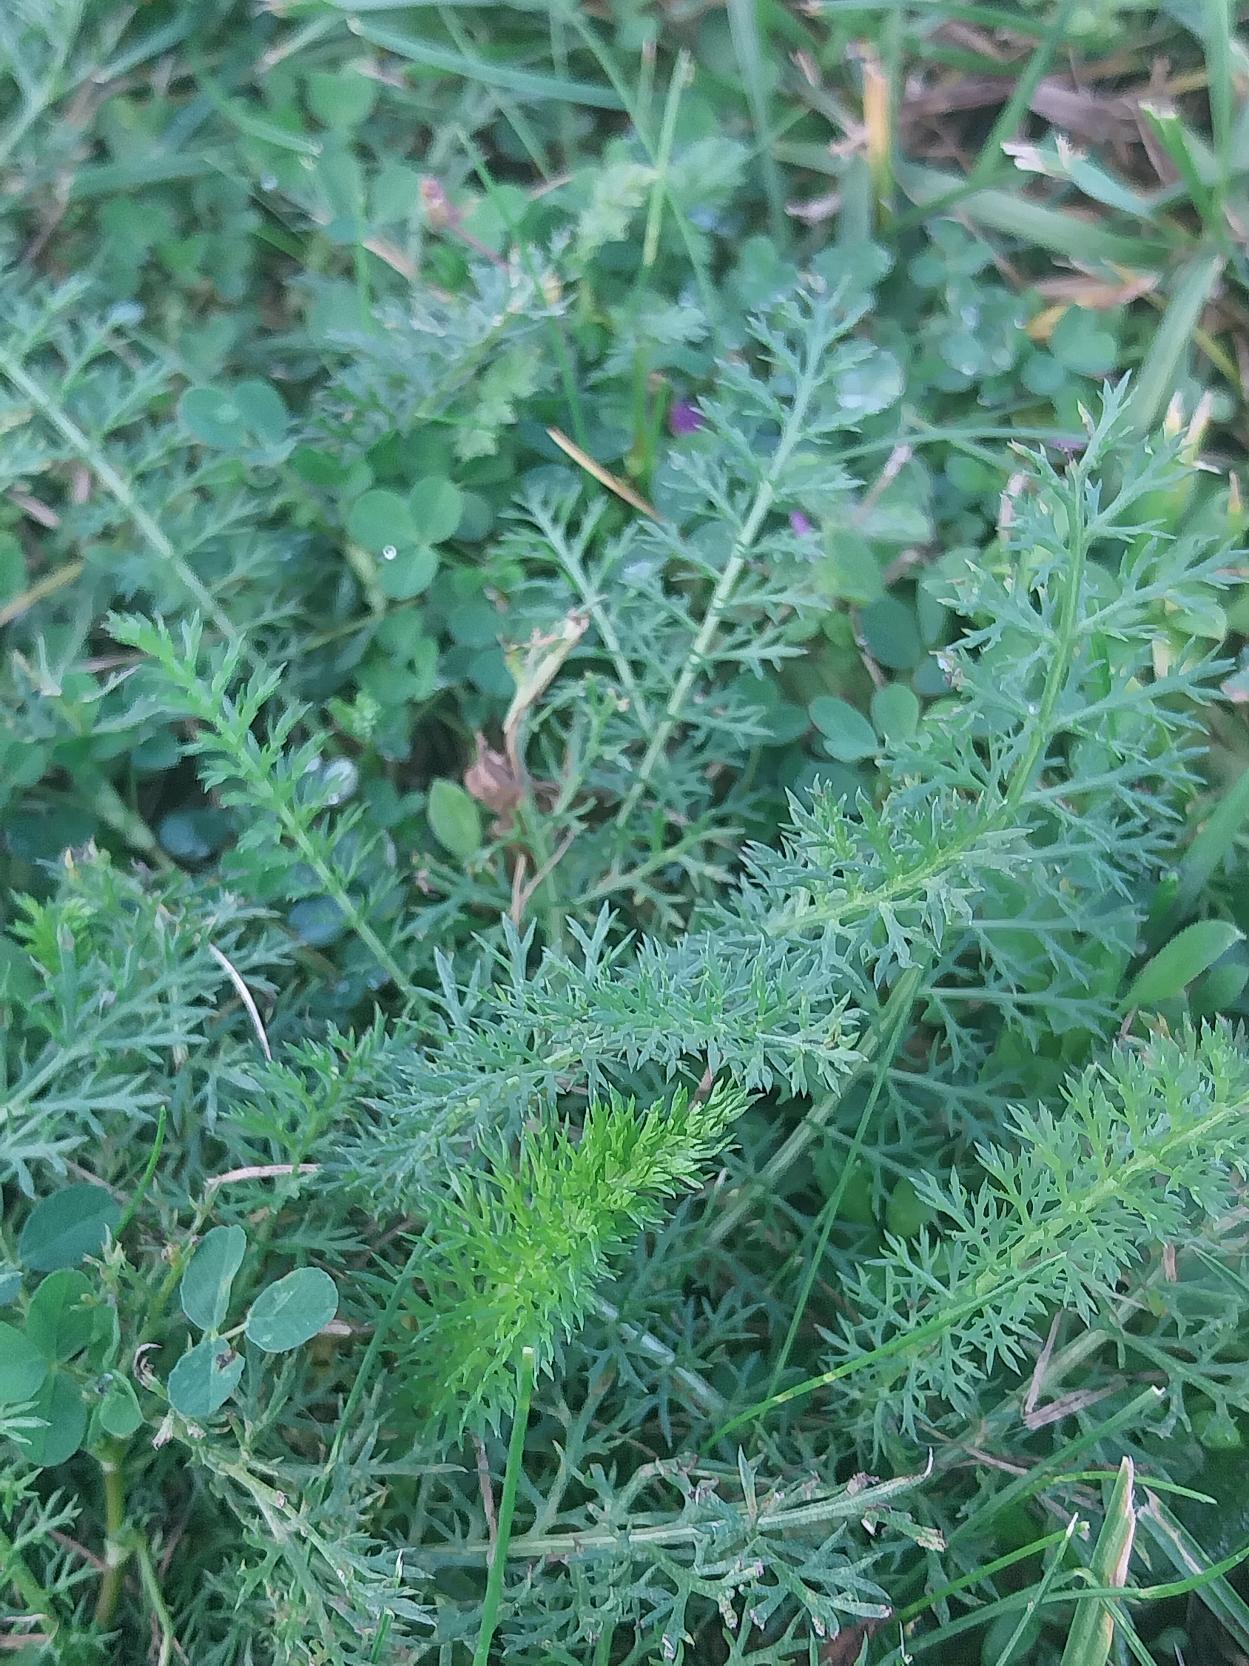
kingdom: Plantae
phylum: Tracheophyta
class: Magnoliopsida
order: Asterales
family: Asteraceae
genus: Achillea
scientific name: Achillea millefolium
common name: Almindelig røllike
